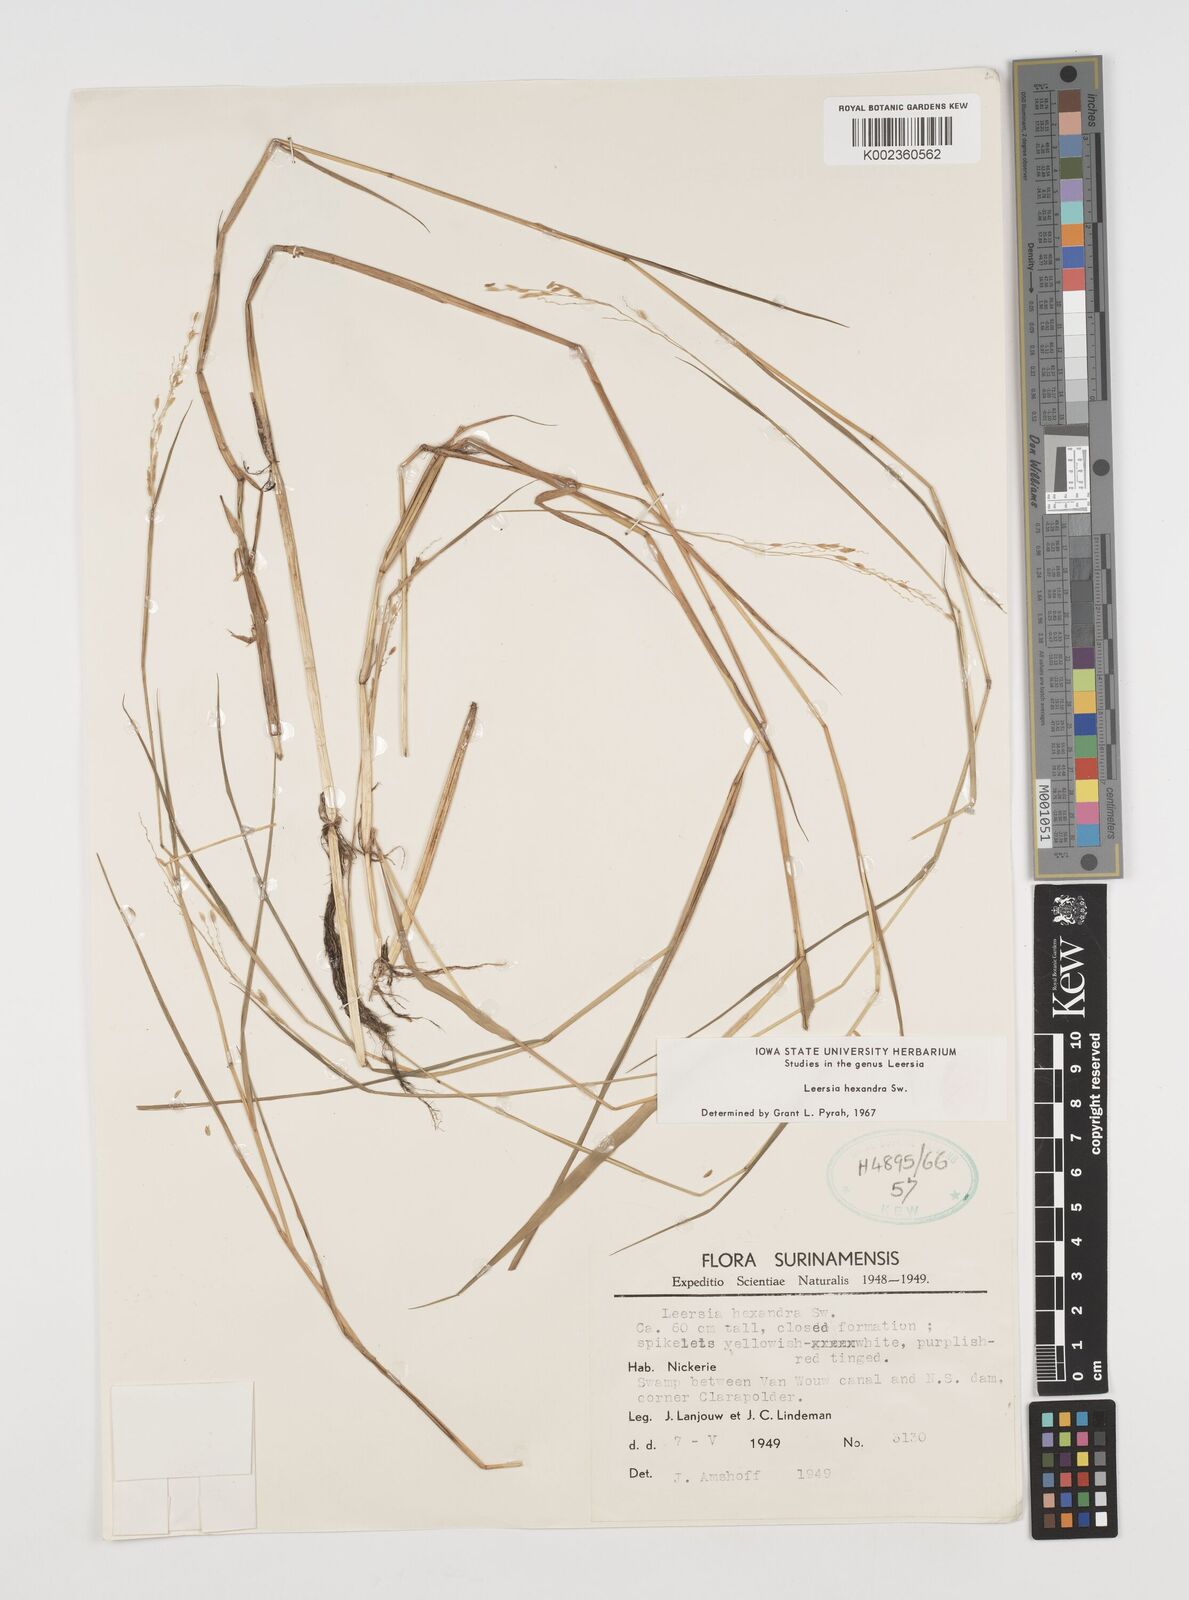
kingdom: Plantae
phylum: Tracheophyta
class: Liliopsida
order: Poales
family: Poaceae
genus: Leersia
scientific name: Leersia hexandra
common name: Southern cut grass
